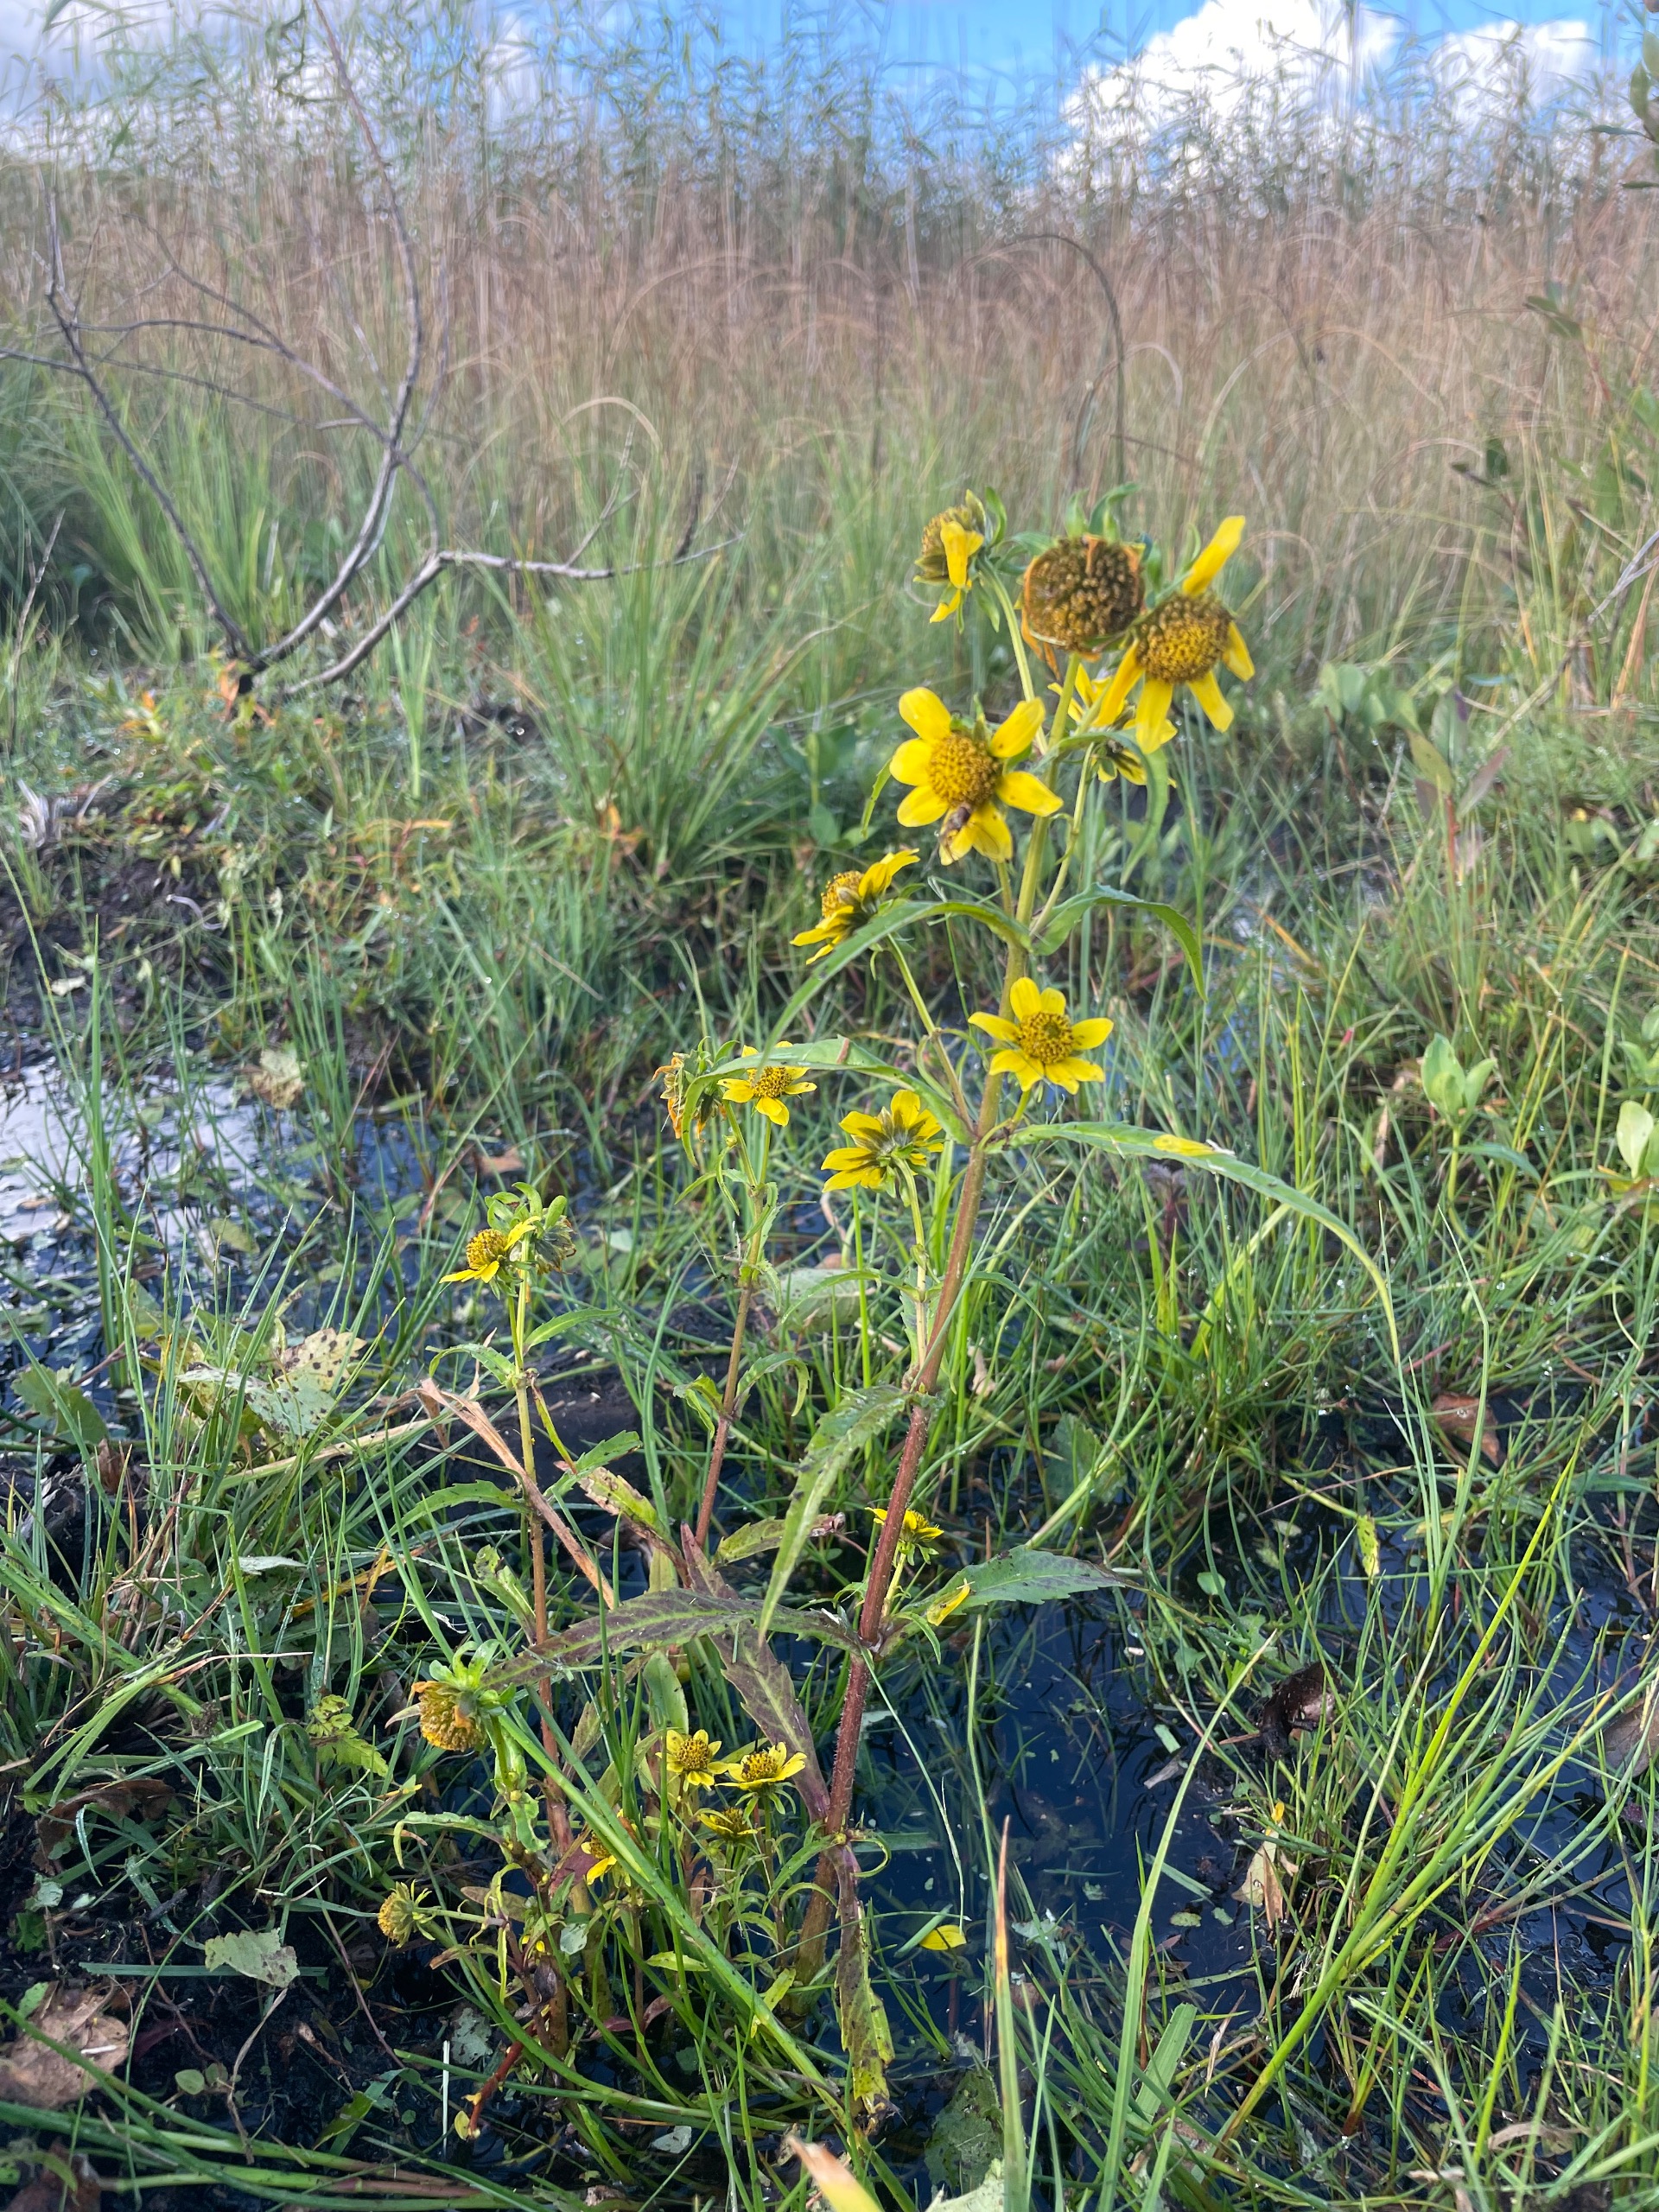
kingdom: Plantae
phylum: Tracheophyta
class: Magnoliopsida
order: Asterales
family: Asteraceae
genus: Bidens
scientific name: Bidens cernua
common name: Nikkende brøndsel
